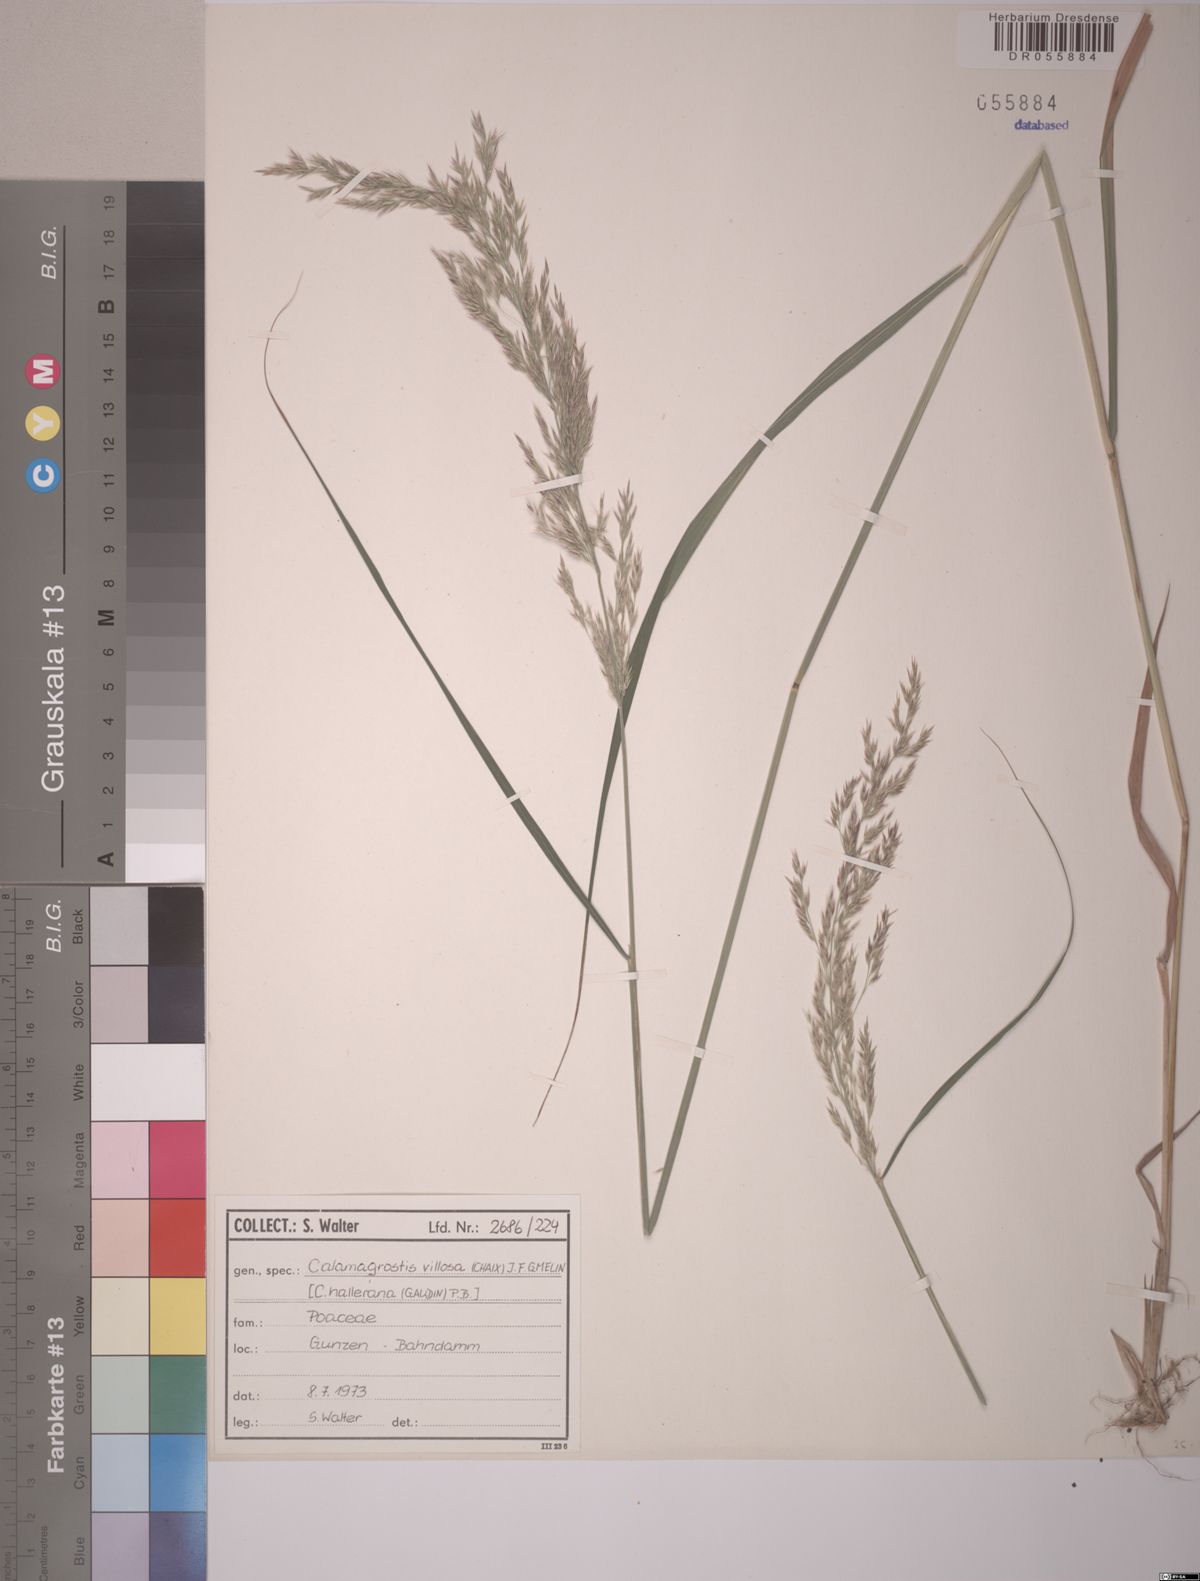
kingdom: Plantae
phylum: Tracheophyta
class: Liliopsida
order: Poales
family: Poaceae
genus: Calamagrostis
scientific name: Calamagrostis villosa
